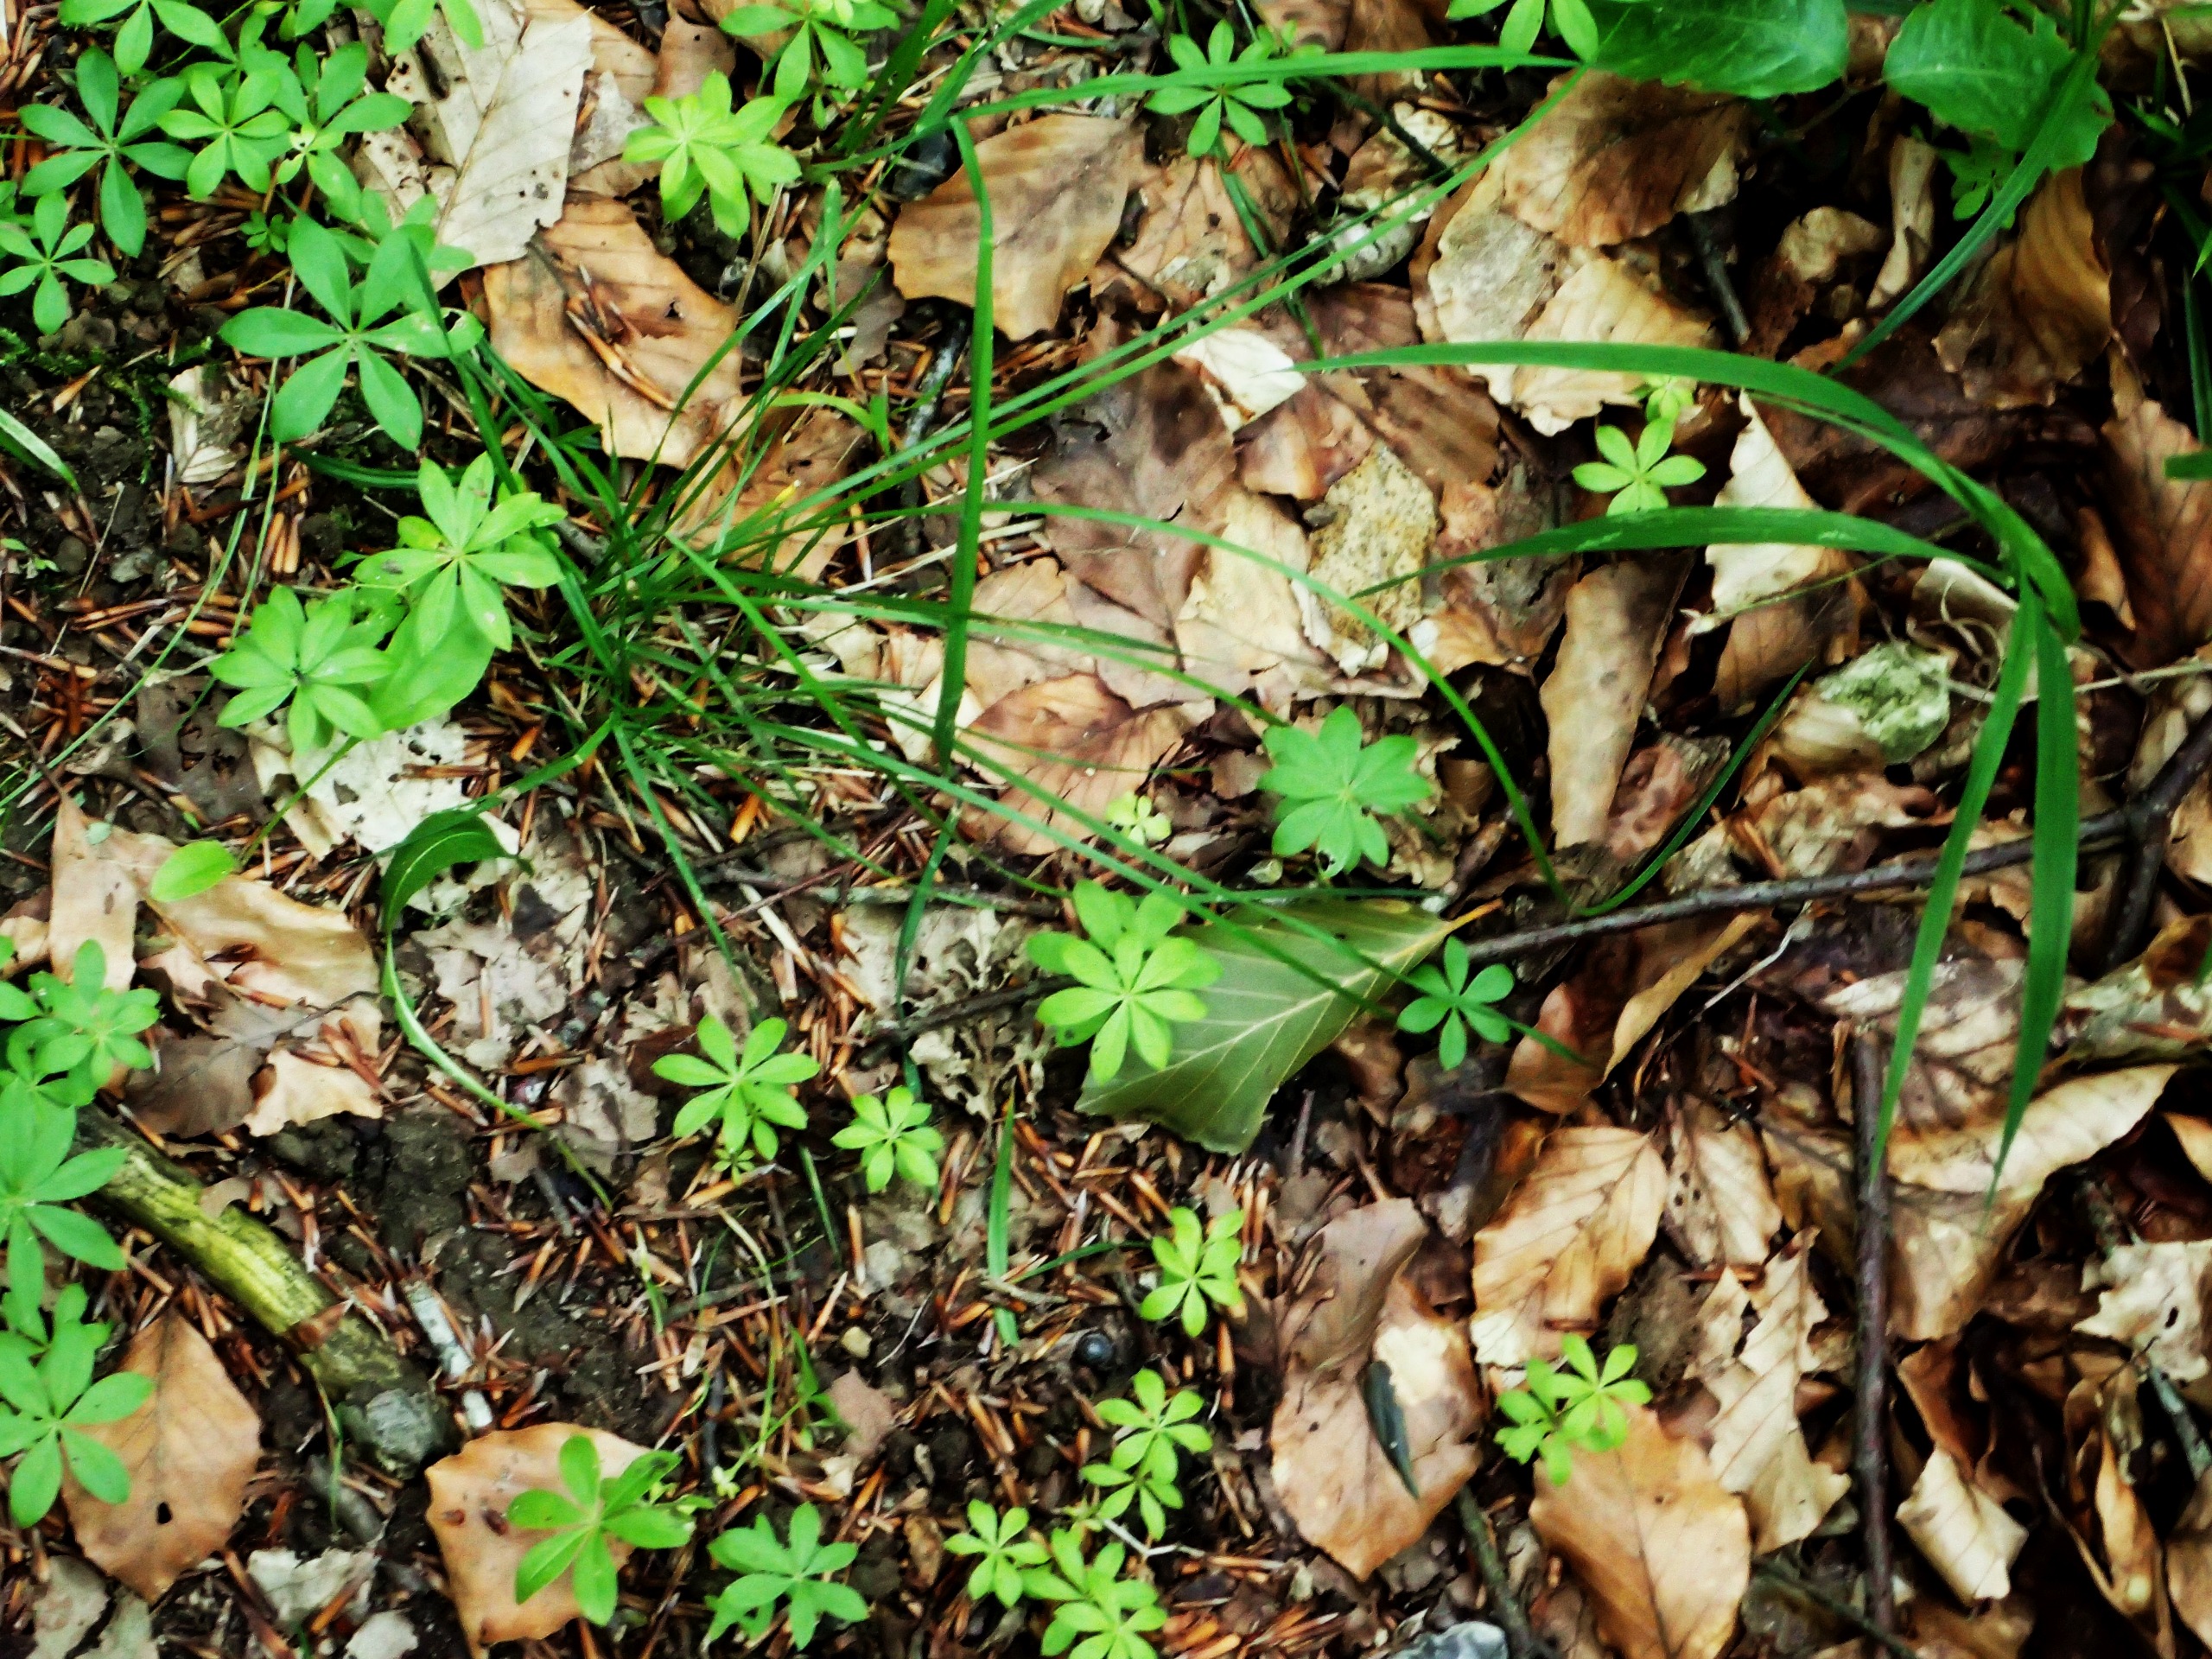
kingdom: Plantae
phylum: Tracheophyta
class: Magnoliopsida
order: Gentianales
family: Rubiaceae
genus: Galium
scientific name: Galium odoratum
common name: Skovmærke
